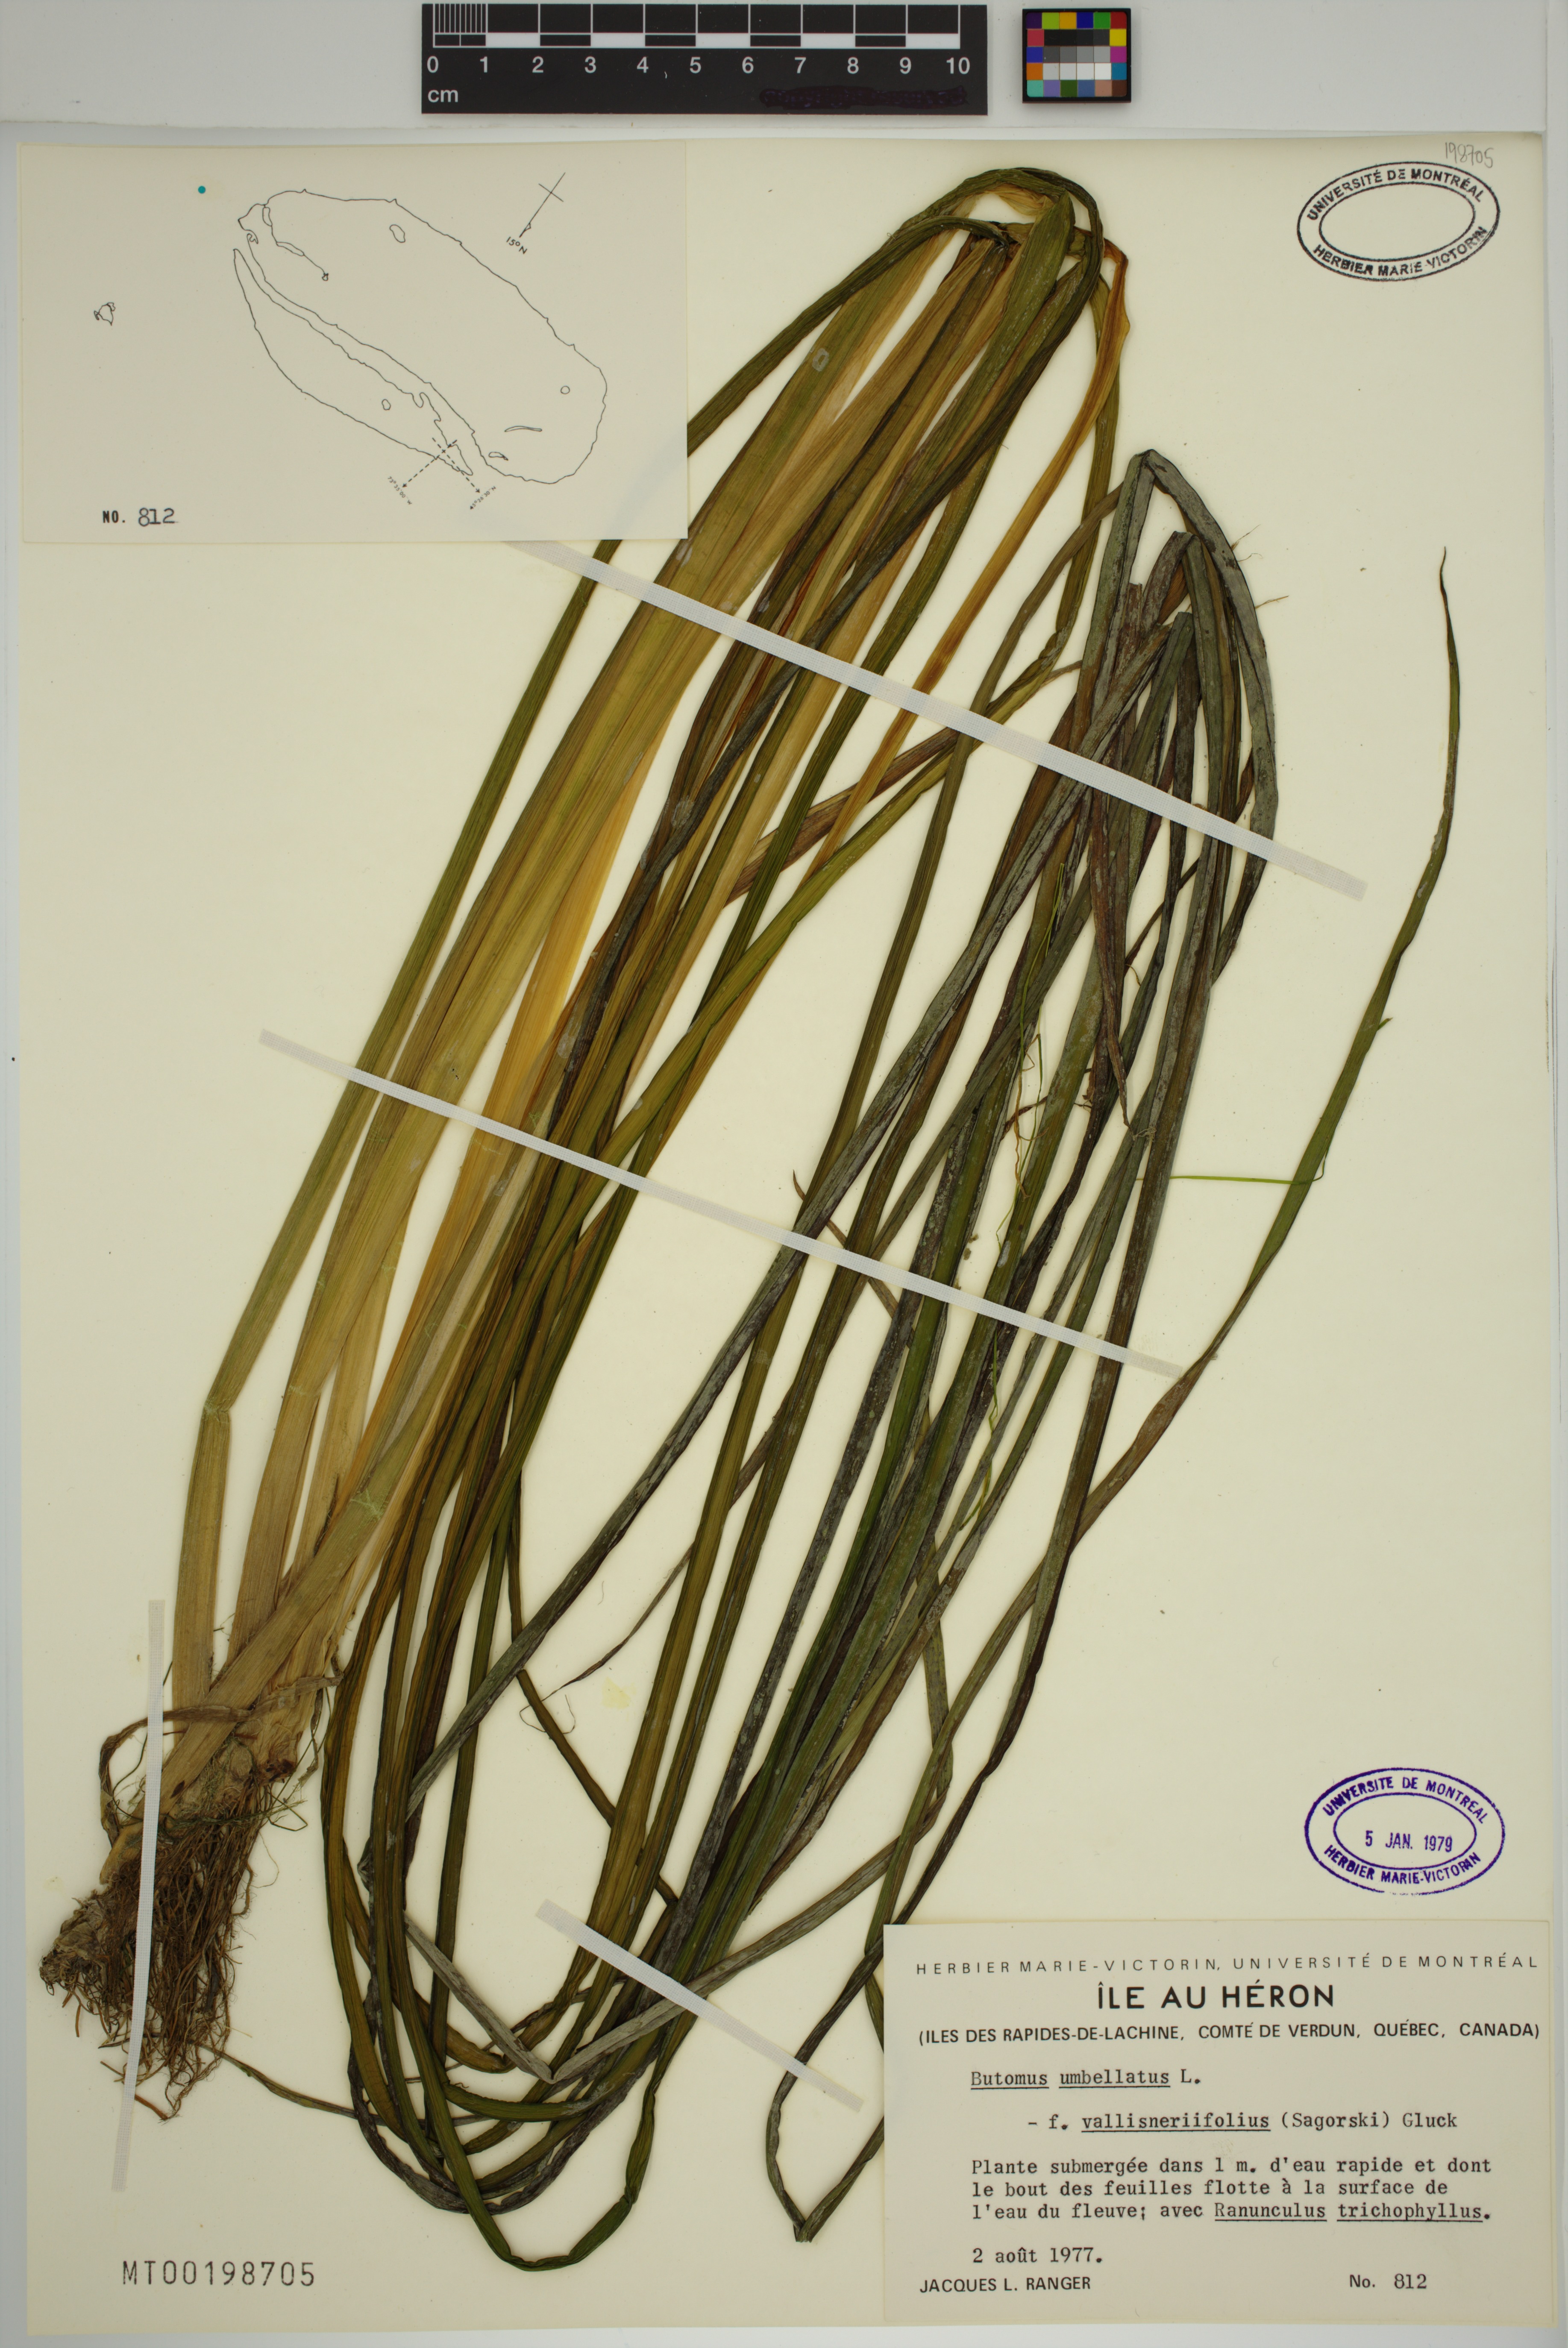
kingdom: Plantae
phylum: Tracheophyta
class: Liliopsida
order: Alismatales
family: Butomaceae
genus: Butomus
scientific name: Butomus umbellatus
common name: Flowering-rush
